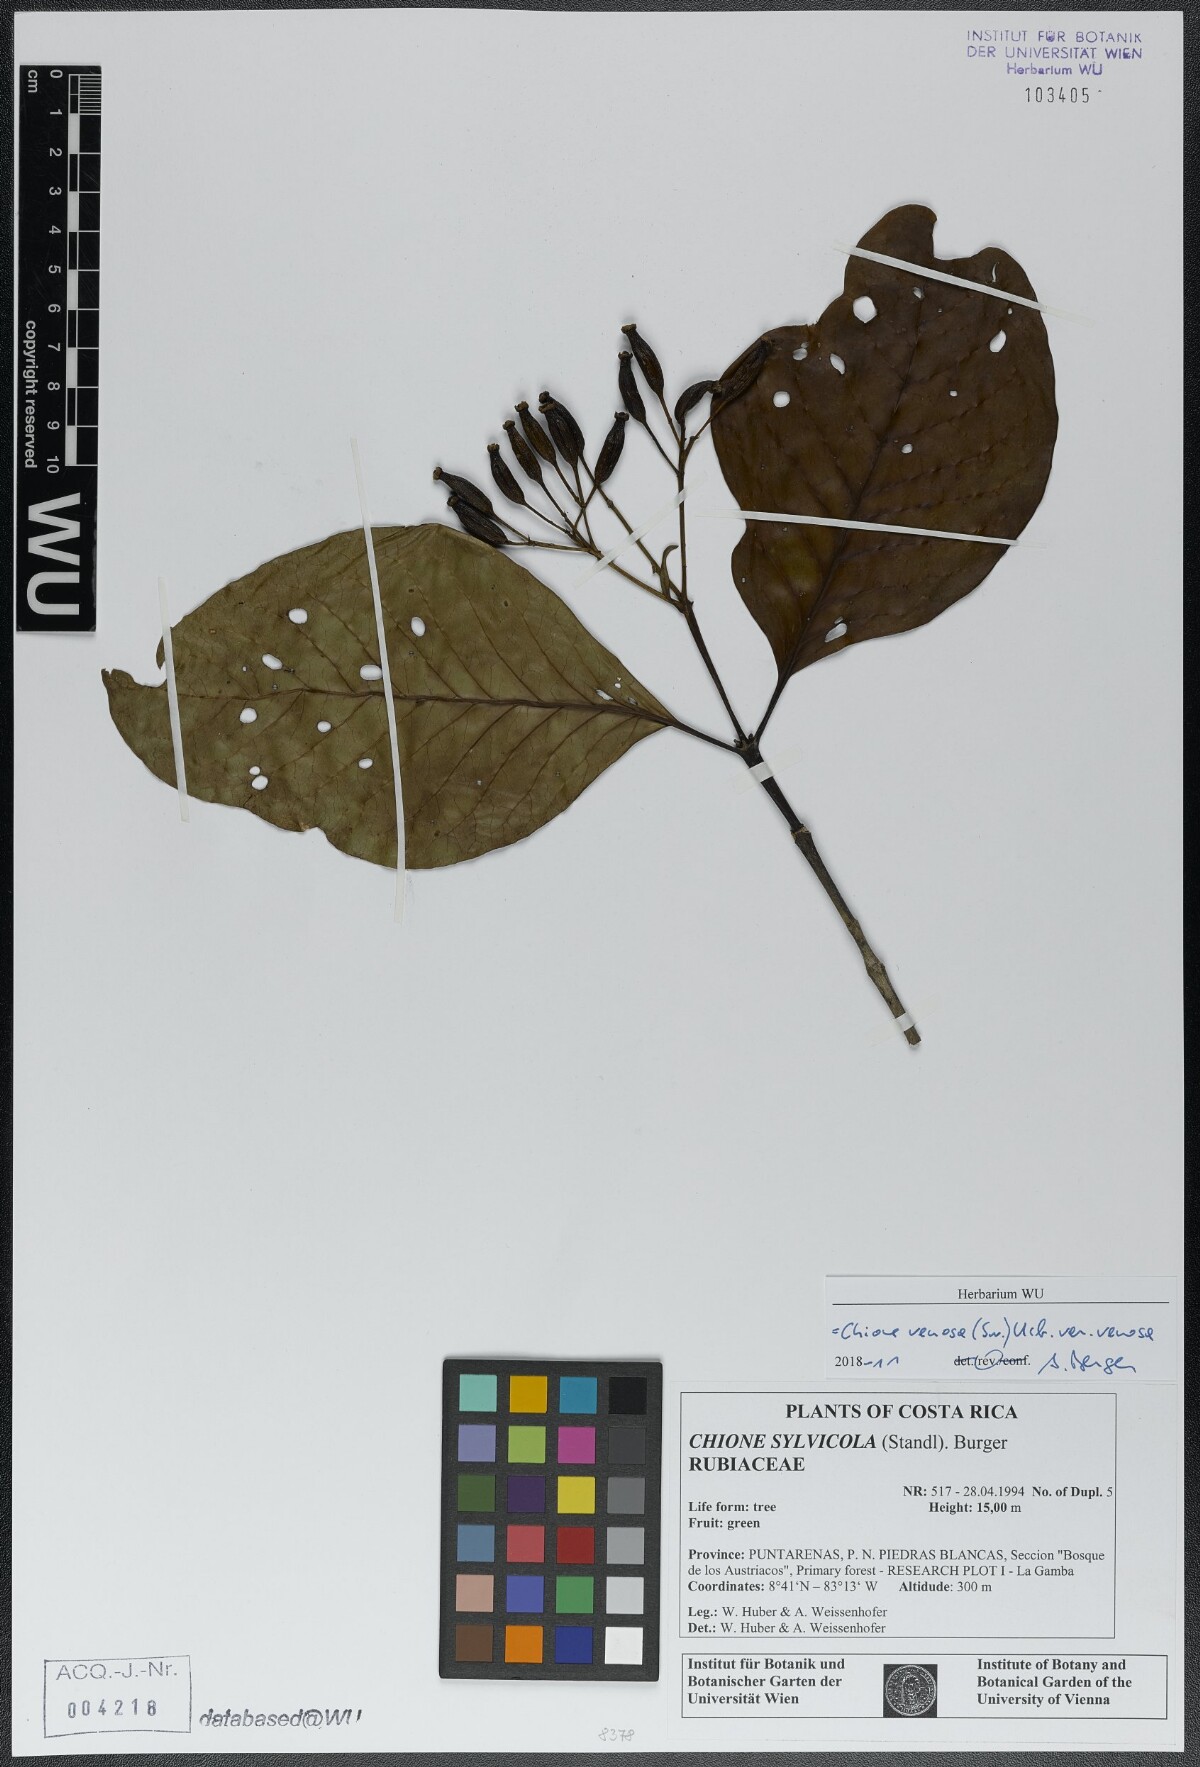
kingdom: Plantae
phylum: Tracheophyta
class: Magnoliopsida
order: Gentianales
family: Rubiaceae
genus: Chione
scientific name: Chione venosa
